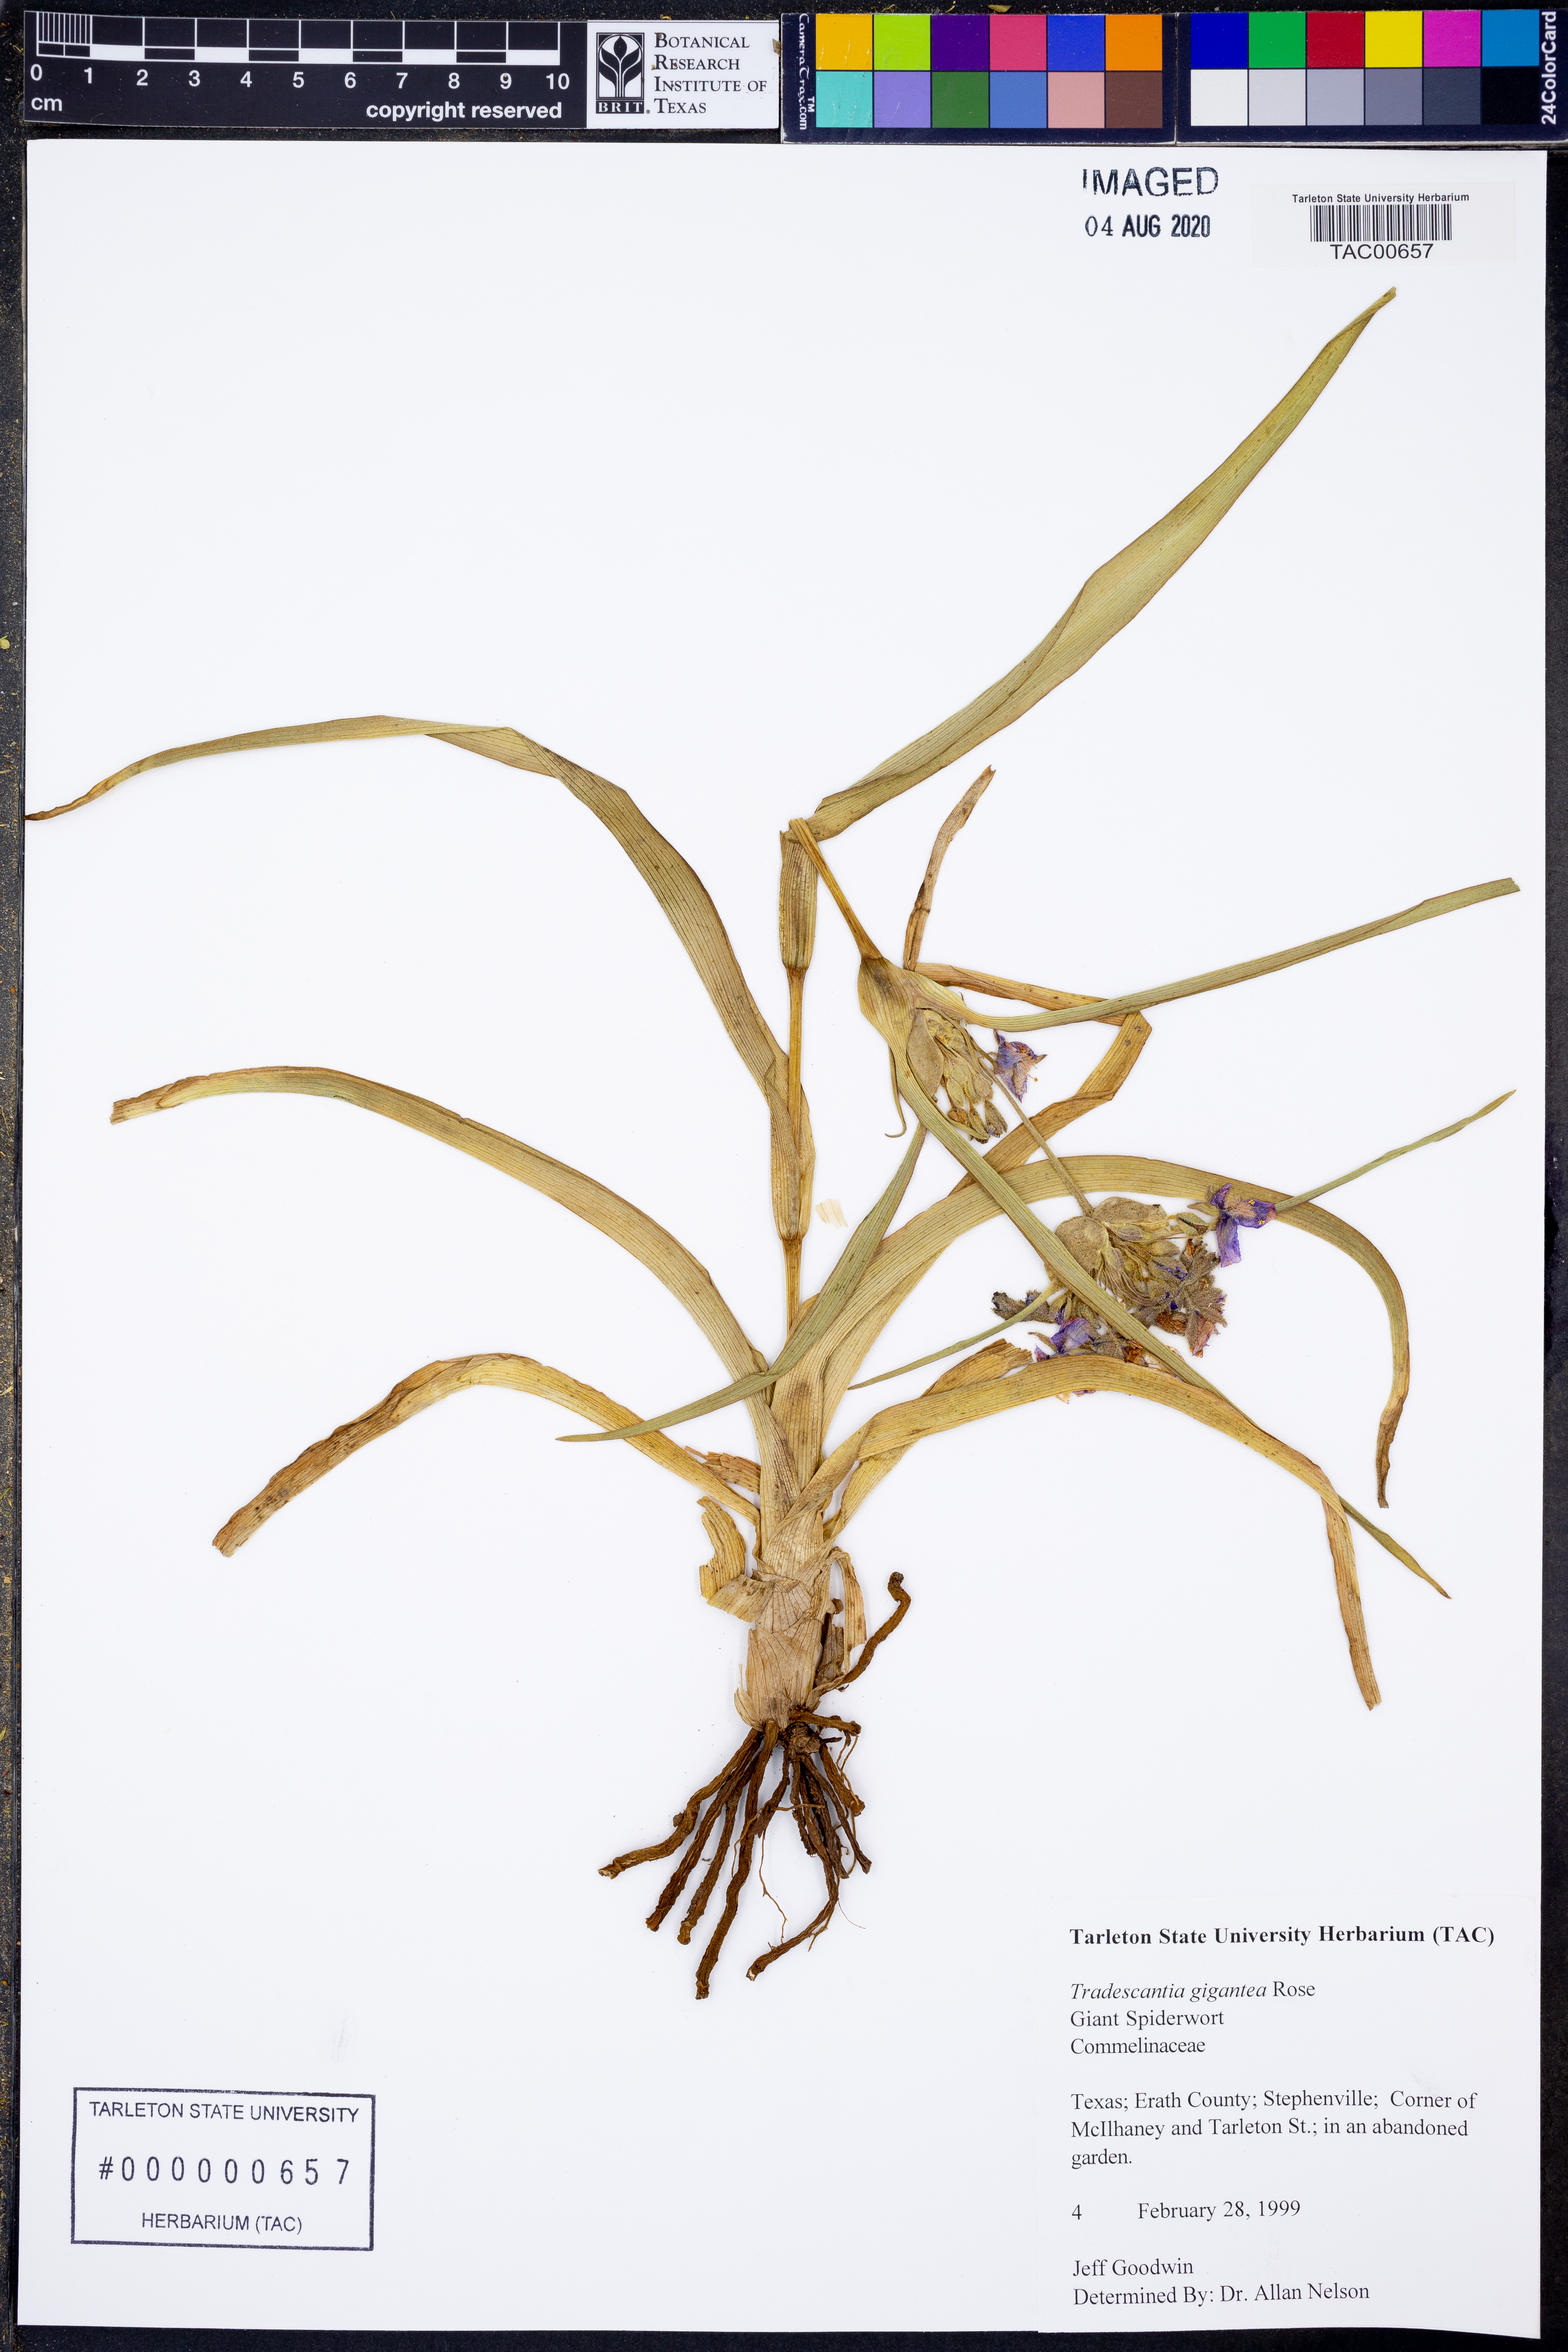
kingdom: Plantae
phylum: Tracheophyta
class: Liliopsida
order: Commelinales
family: Commelinaceae
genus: Tradescantia
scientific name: Tradescantia gigantea
